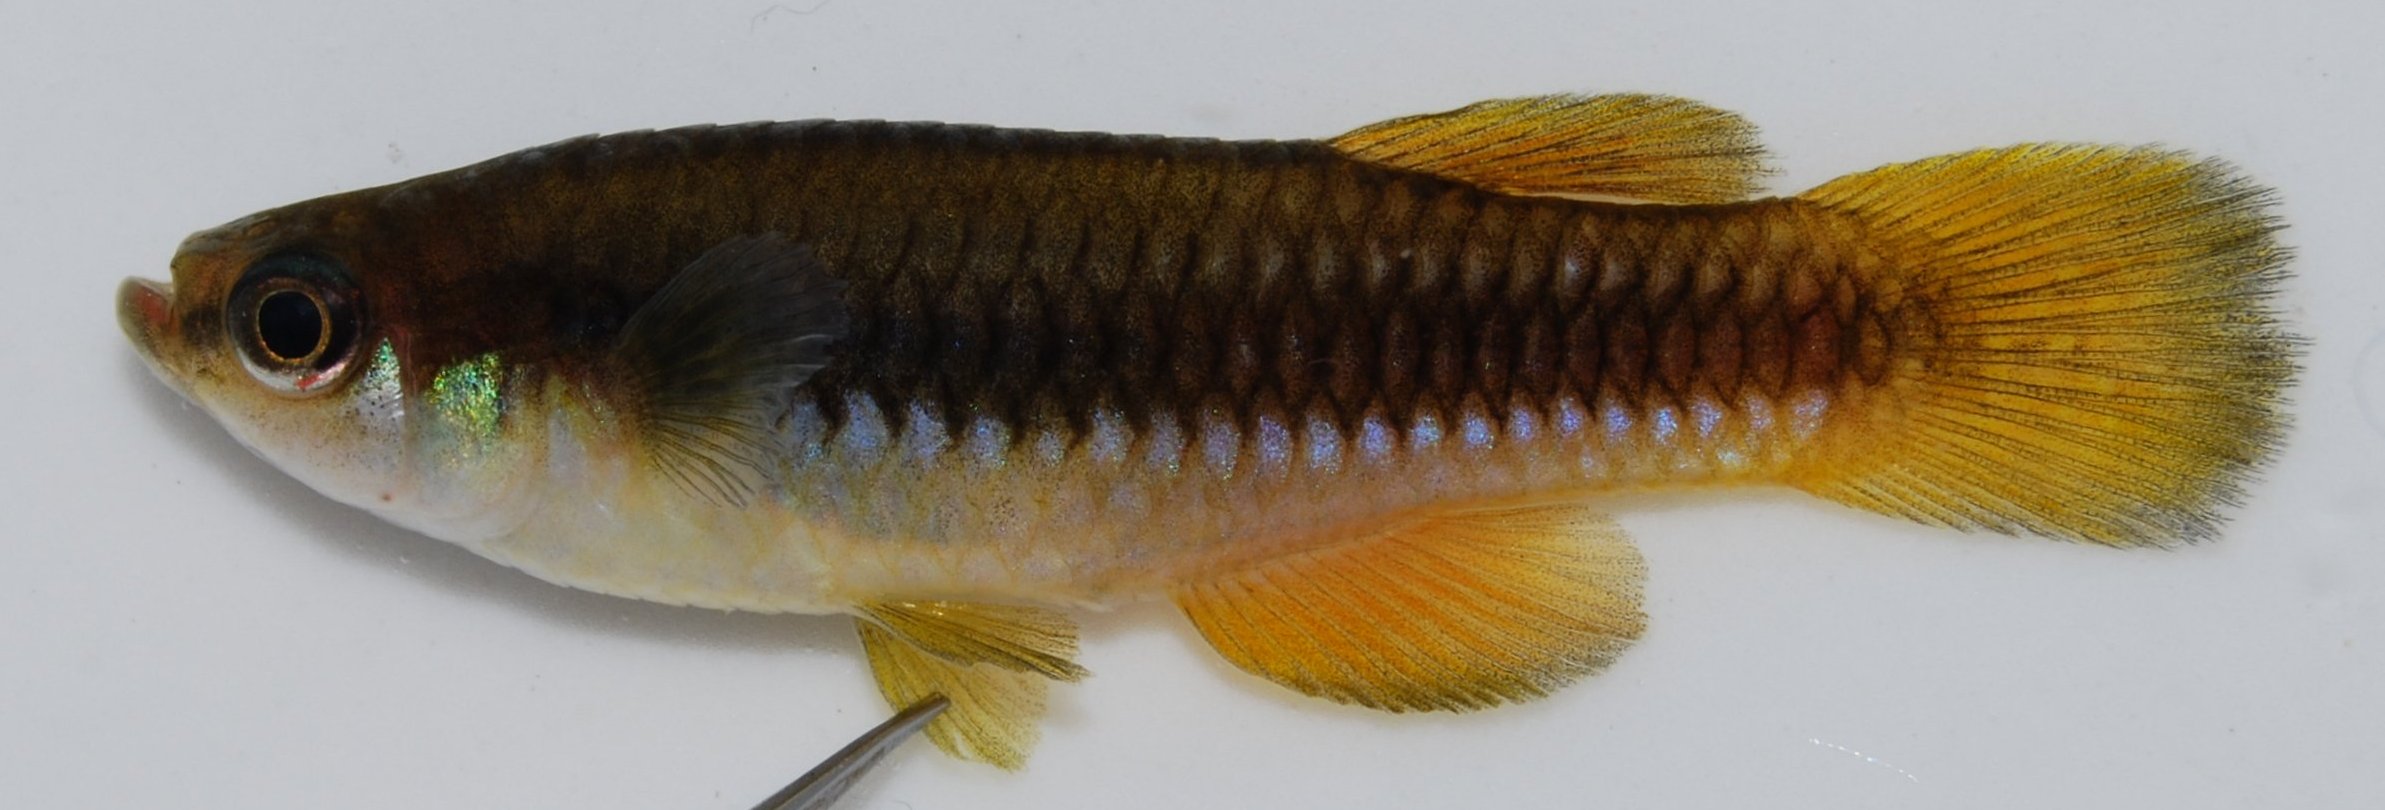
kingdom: Animalia
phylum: Chordata
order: Cyprinodontiformes
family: Poeciliidae
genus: Lacustricola
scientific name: Lacustricola katangae
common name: Striped topminnow
